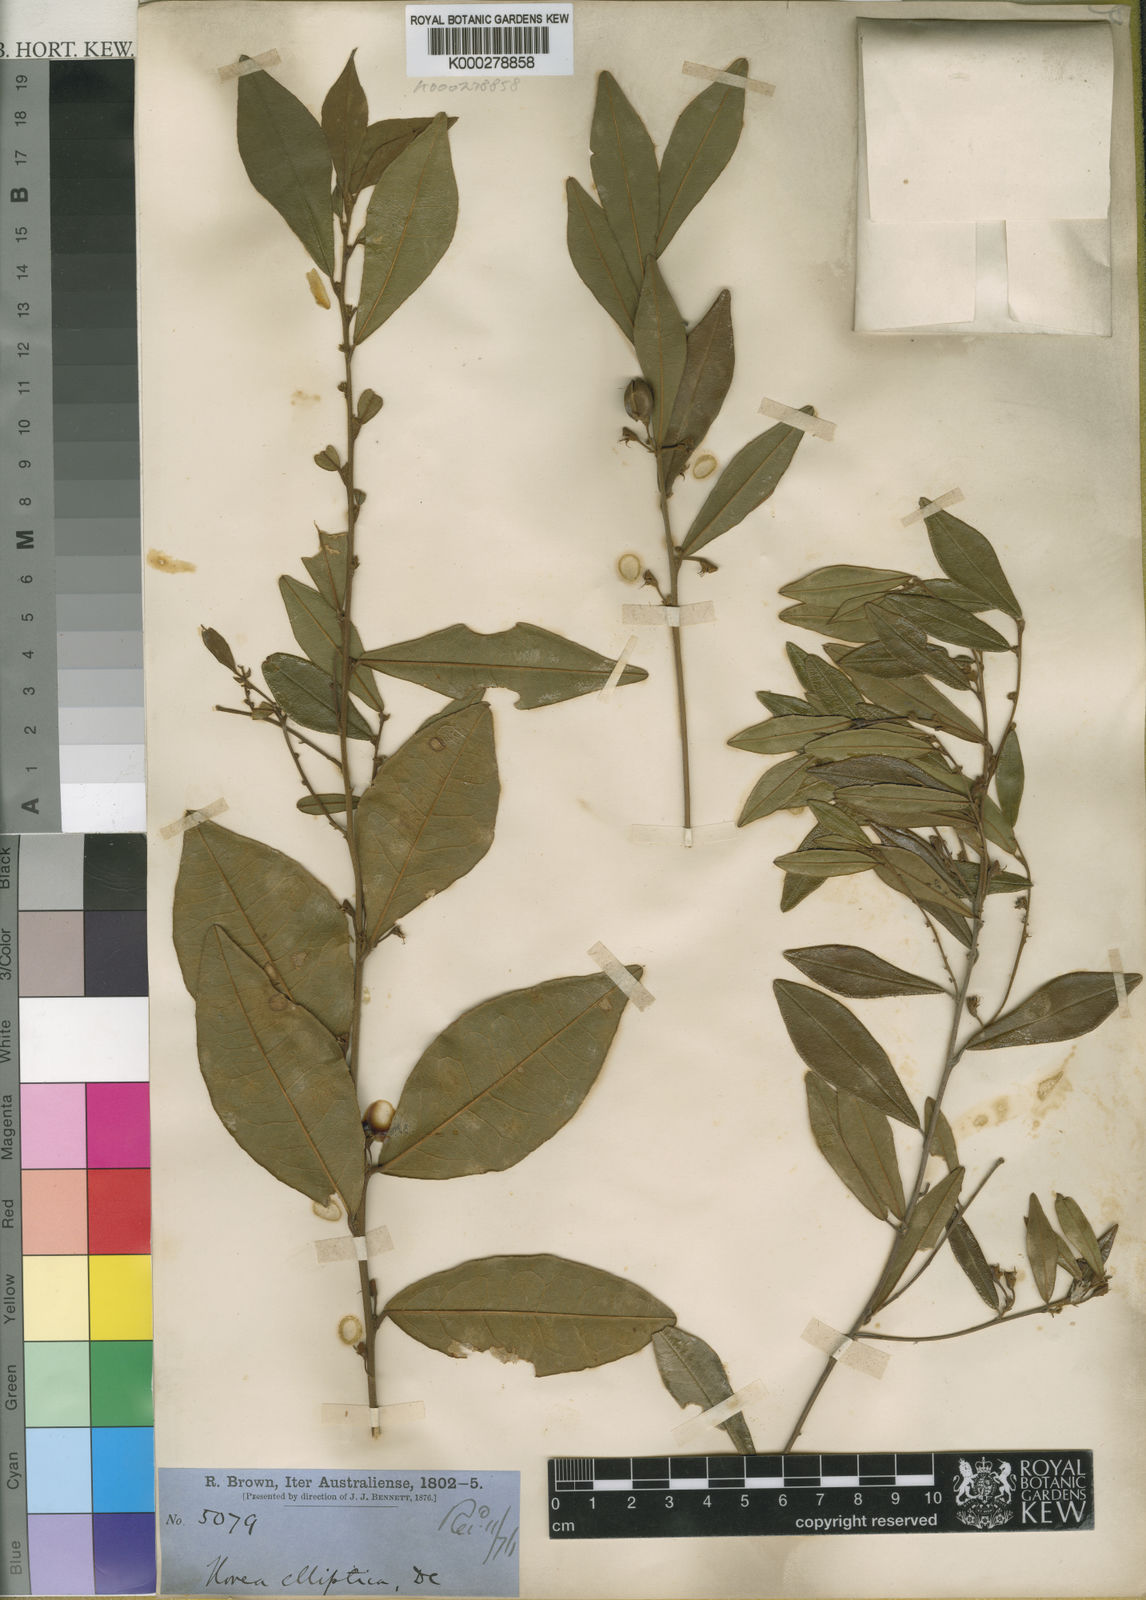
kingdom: Plantae
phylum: Tracheophyta
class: Magnoliopsida
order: Fabales
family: Fabaceae
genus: Hovea
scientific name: Hovea elliptica
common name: Tree hovea
